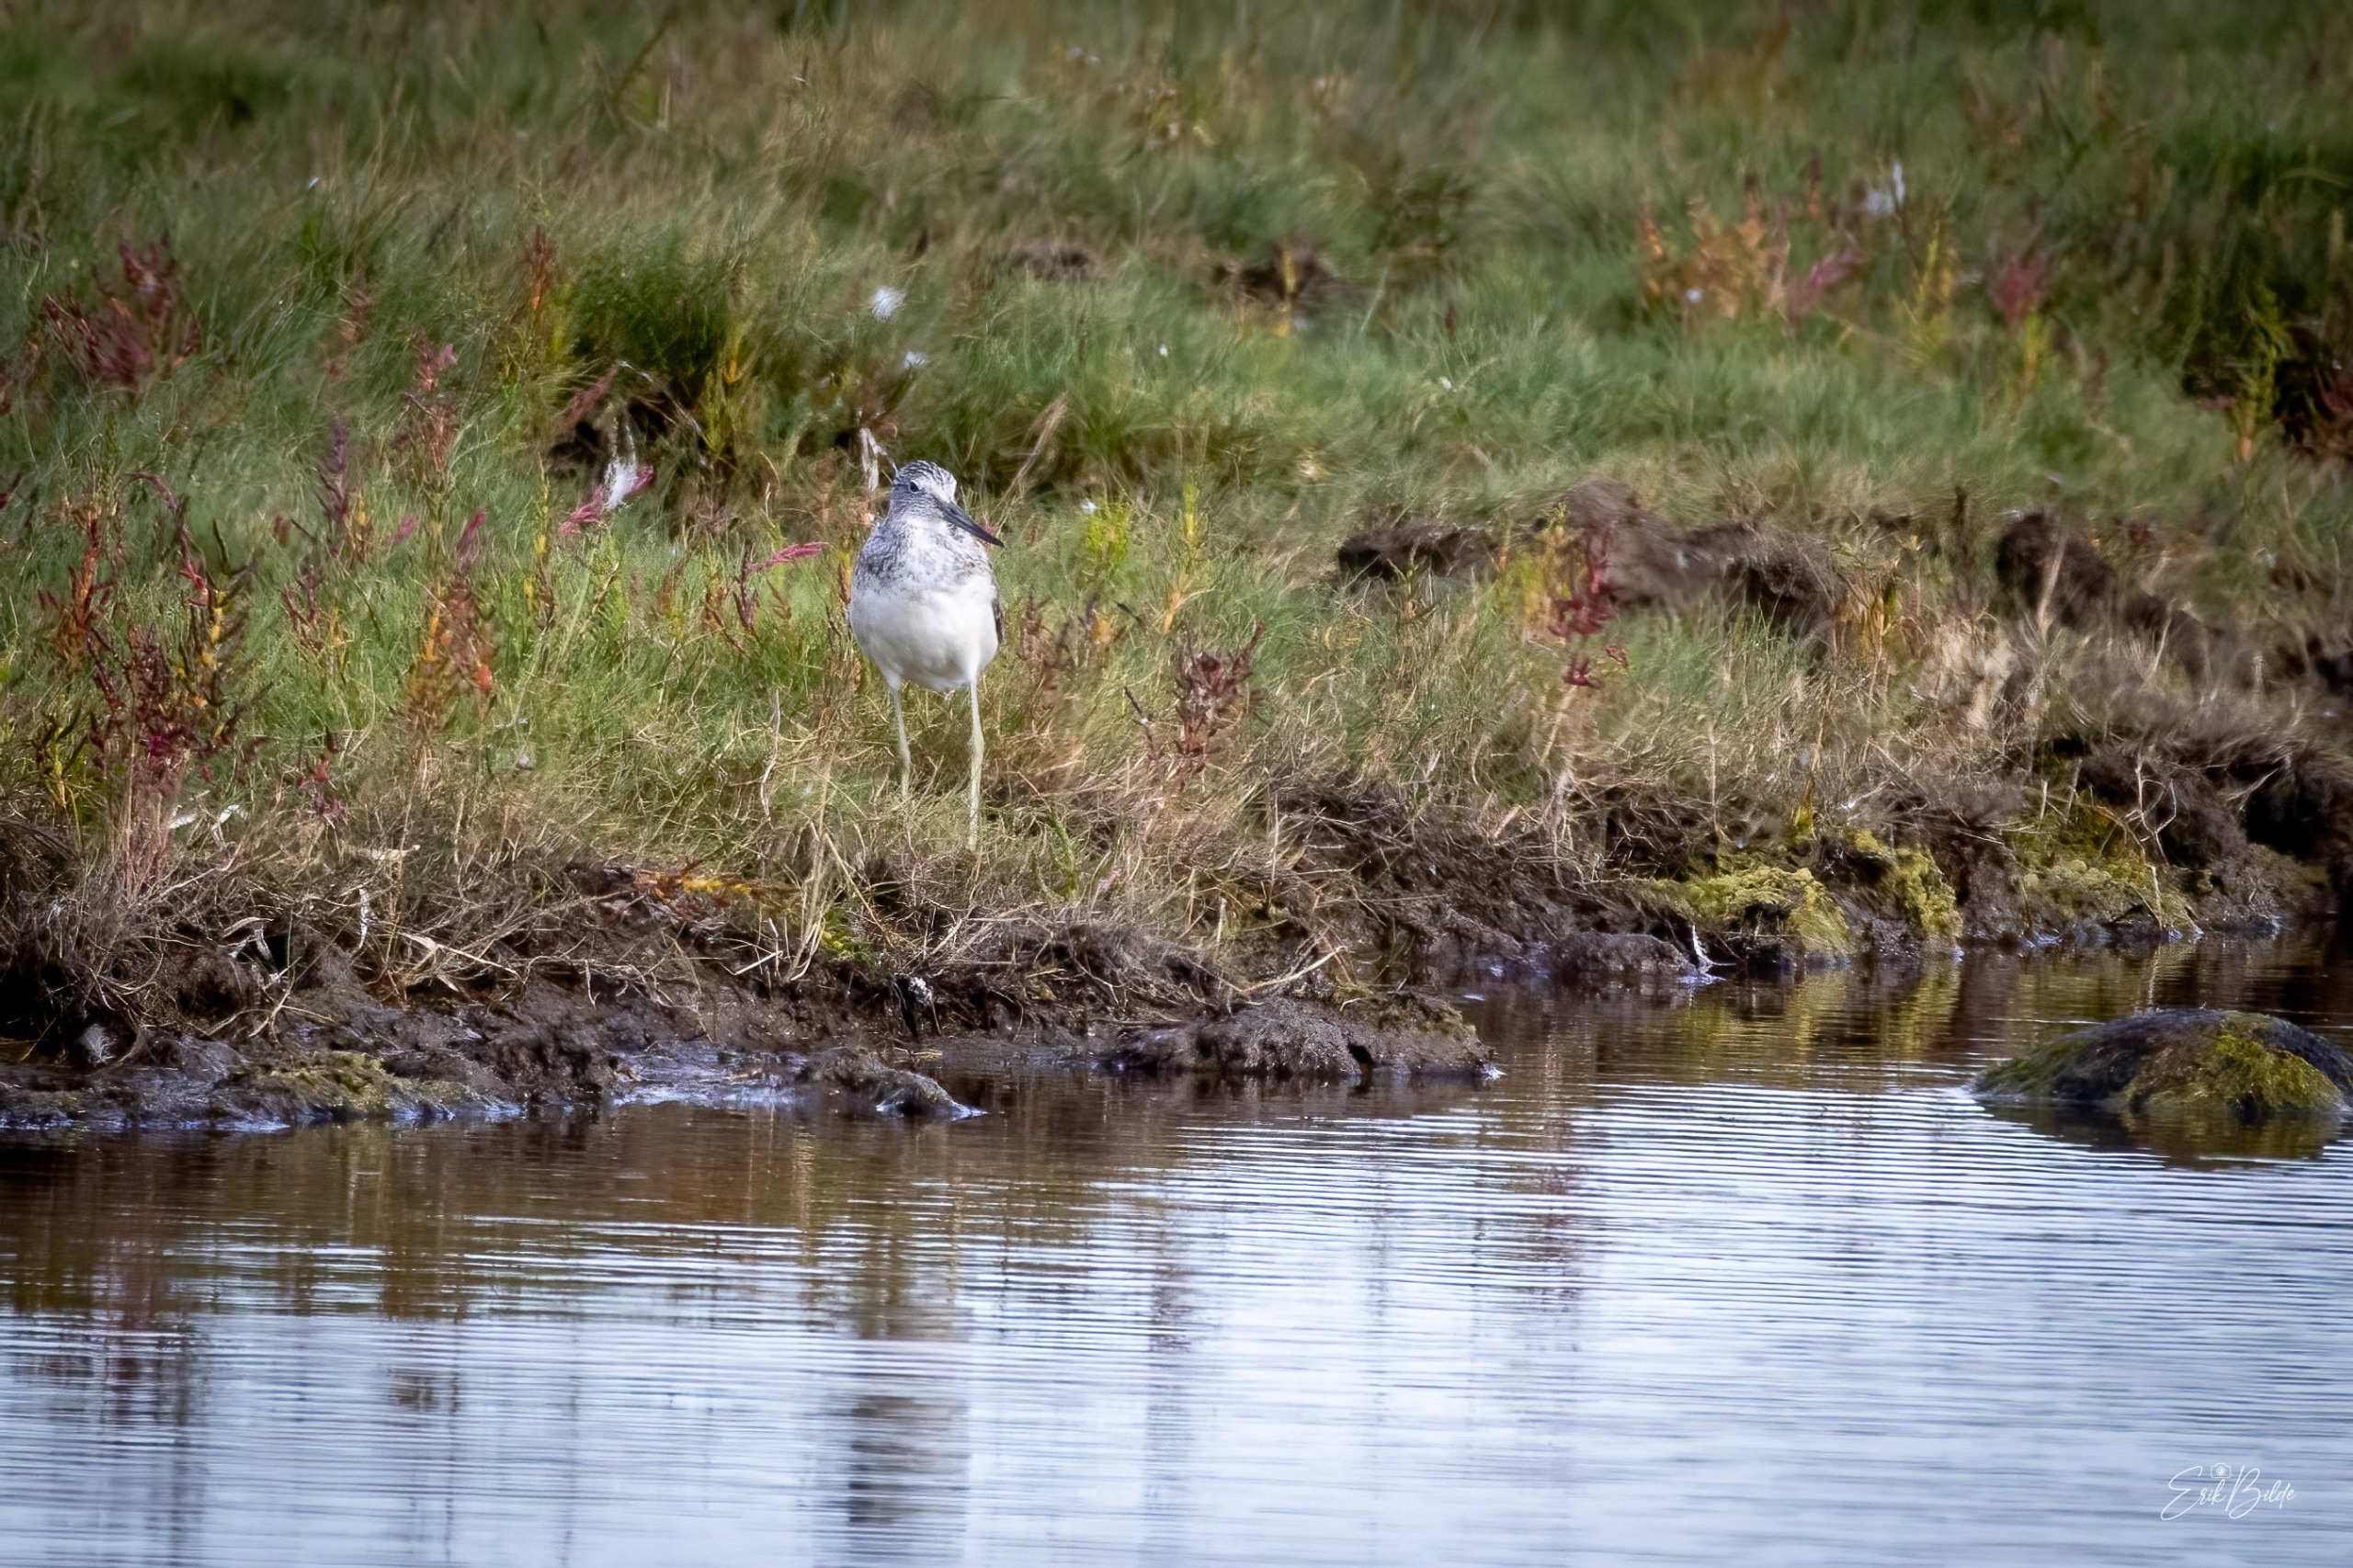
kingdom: Animalia
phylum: Chordata
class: Aves
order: Charadriiformes
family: Scolopacidae
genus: Tringa
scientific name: Tringa nebularia
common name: Hvidklire
